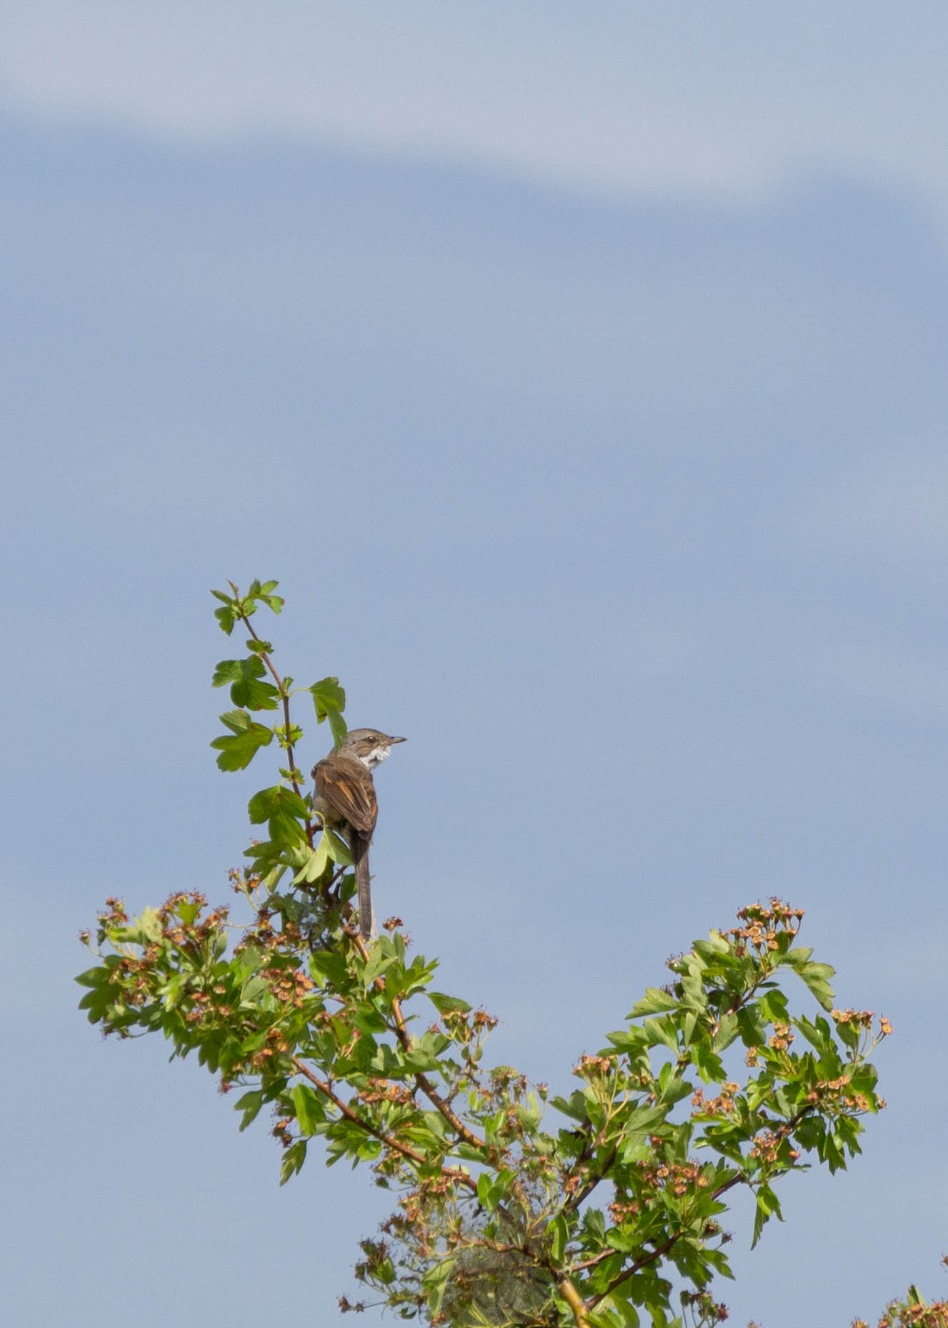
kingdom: Animalia
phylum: Chordata
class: Aves
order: Passeriformes
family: Sylviidae
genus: Sylvia
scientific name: Sylvia communis
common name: Tornsanger
